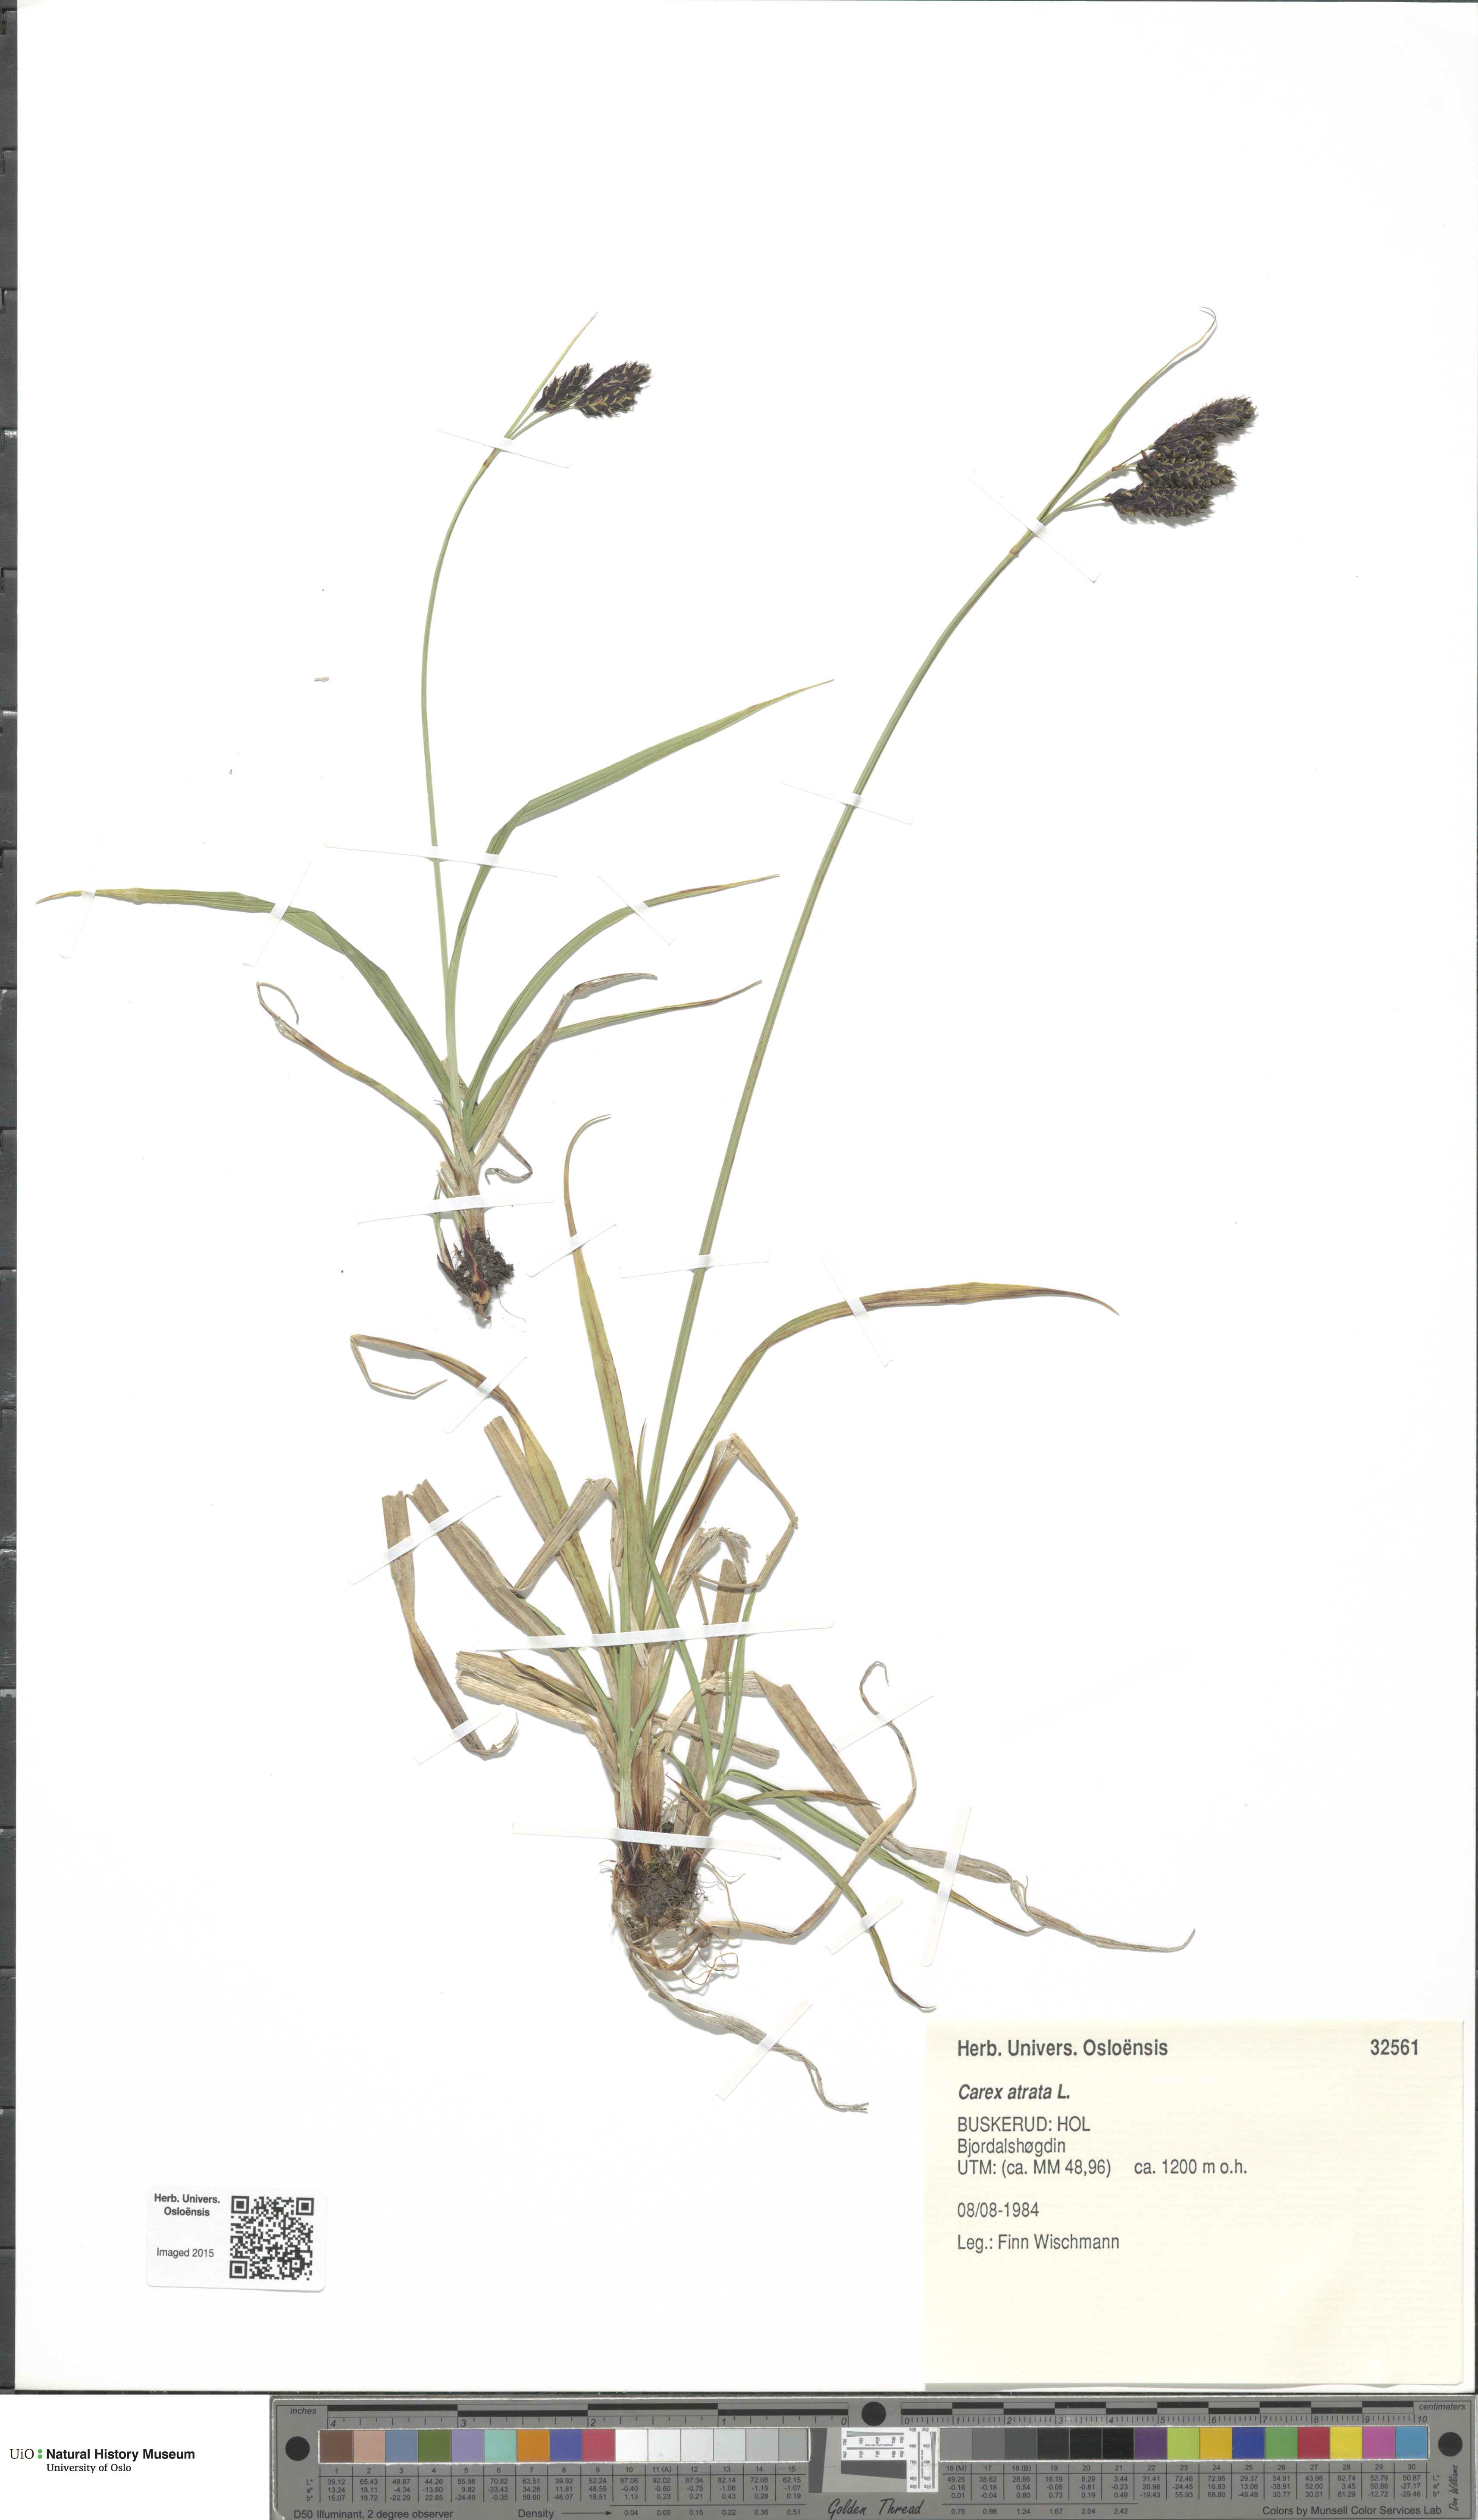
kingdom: Plantae
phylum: Tracheophyta
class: Liliopsida
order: Poales
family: Cyperaceae
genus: Carex
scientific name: Carex atrata
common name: Black alpine sedge
